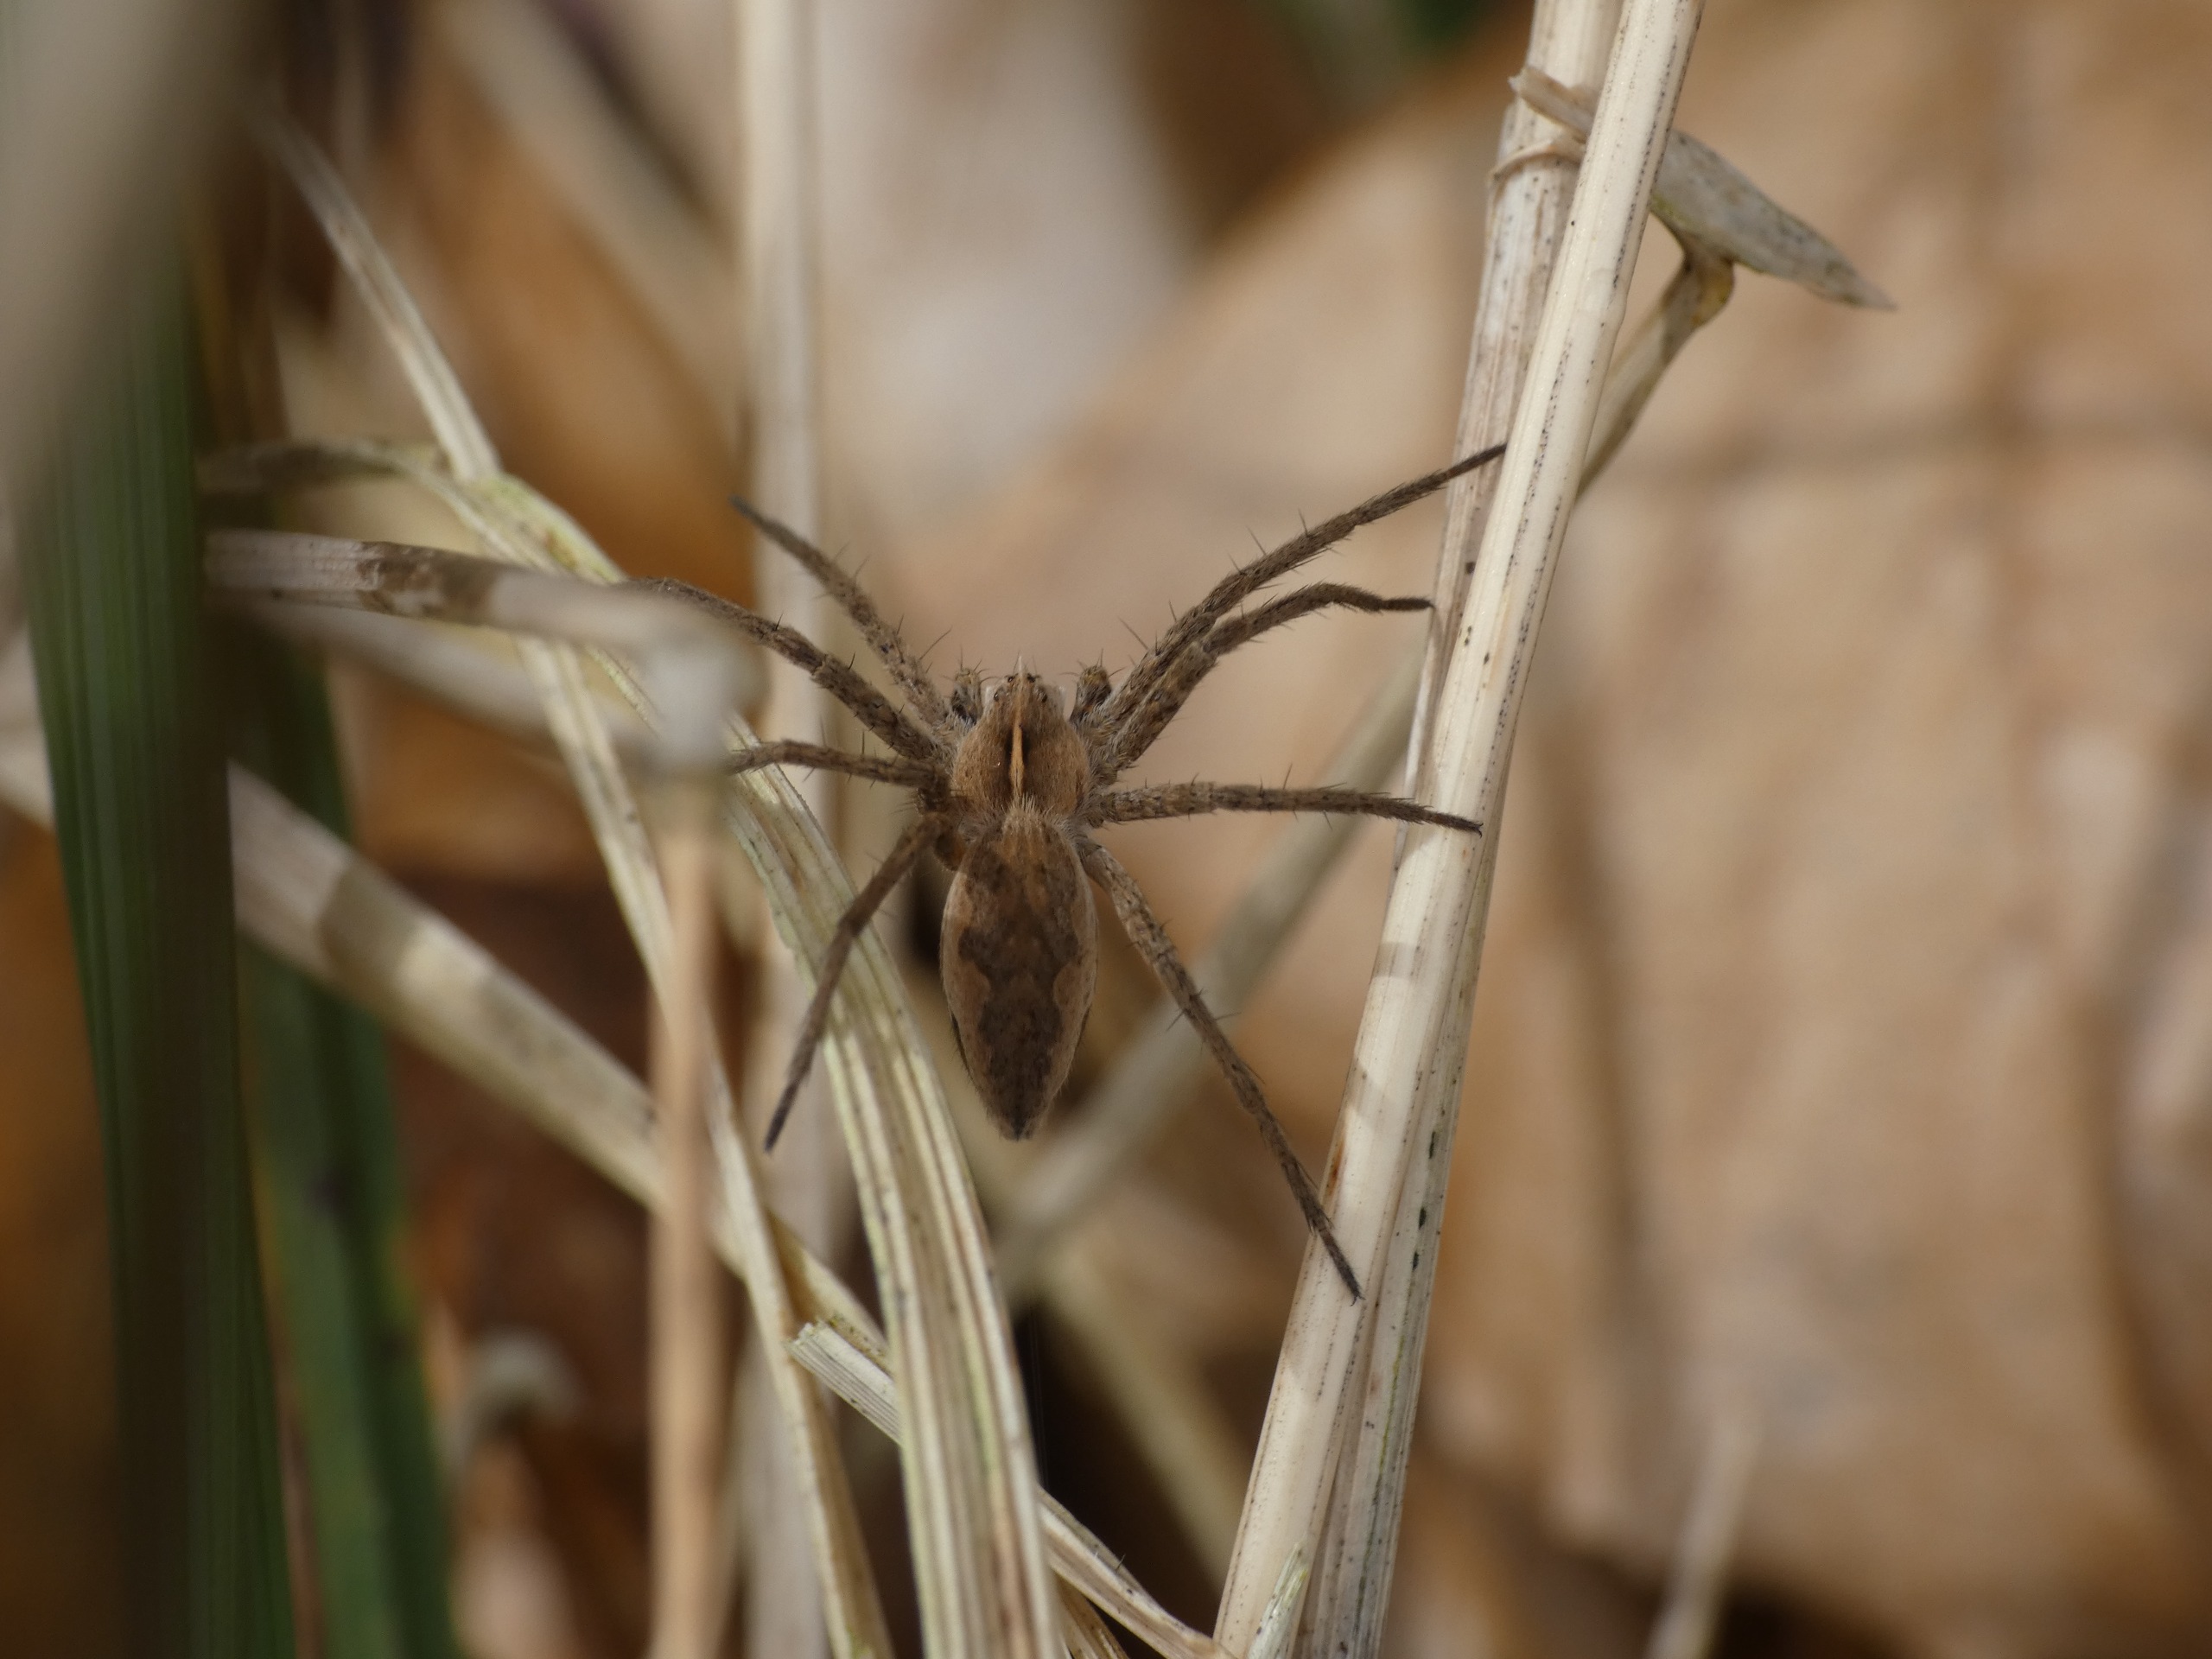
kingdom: Animalia
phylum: Arthropoda
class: Arachnida
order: Araneae
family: Pisauridae
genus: Pisaura
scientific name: Pisaura mirabilis
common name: Almindelig rovedderkop
